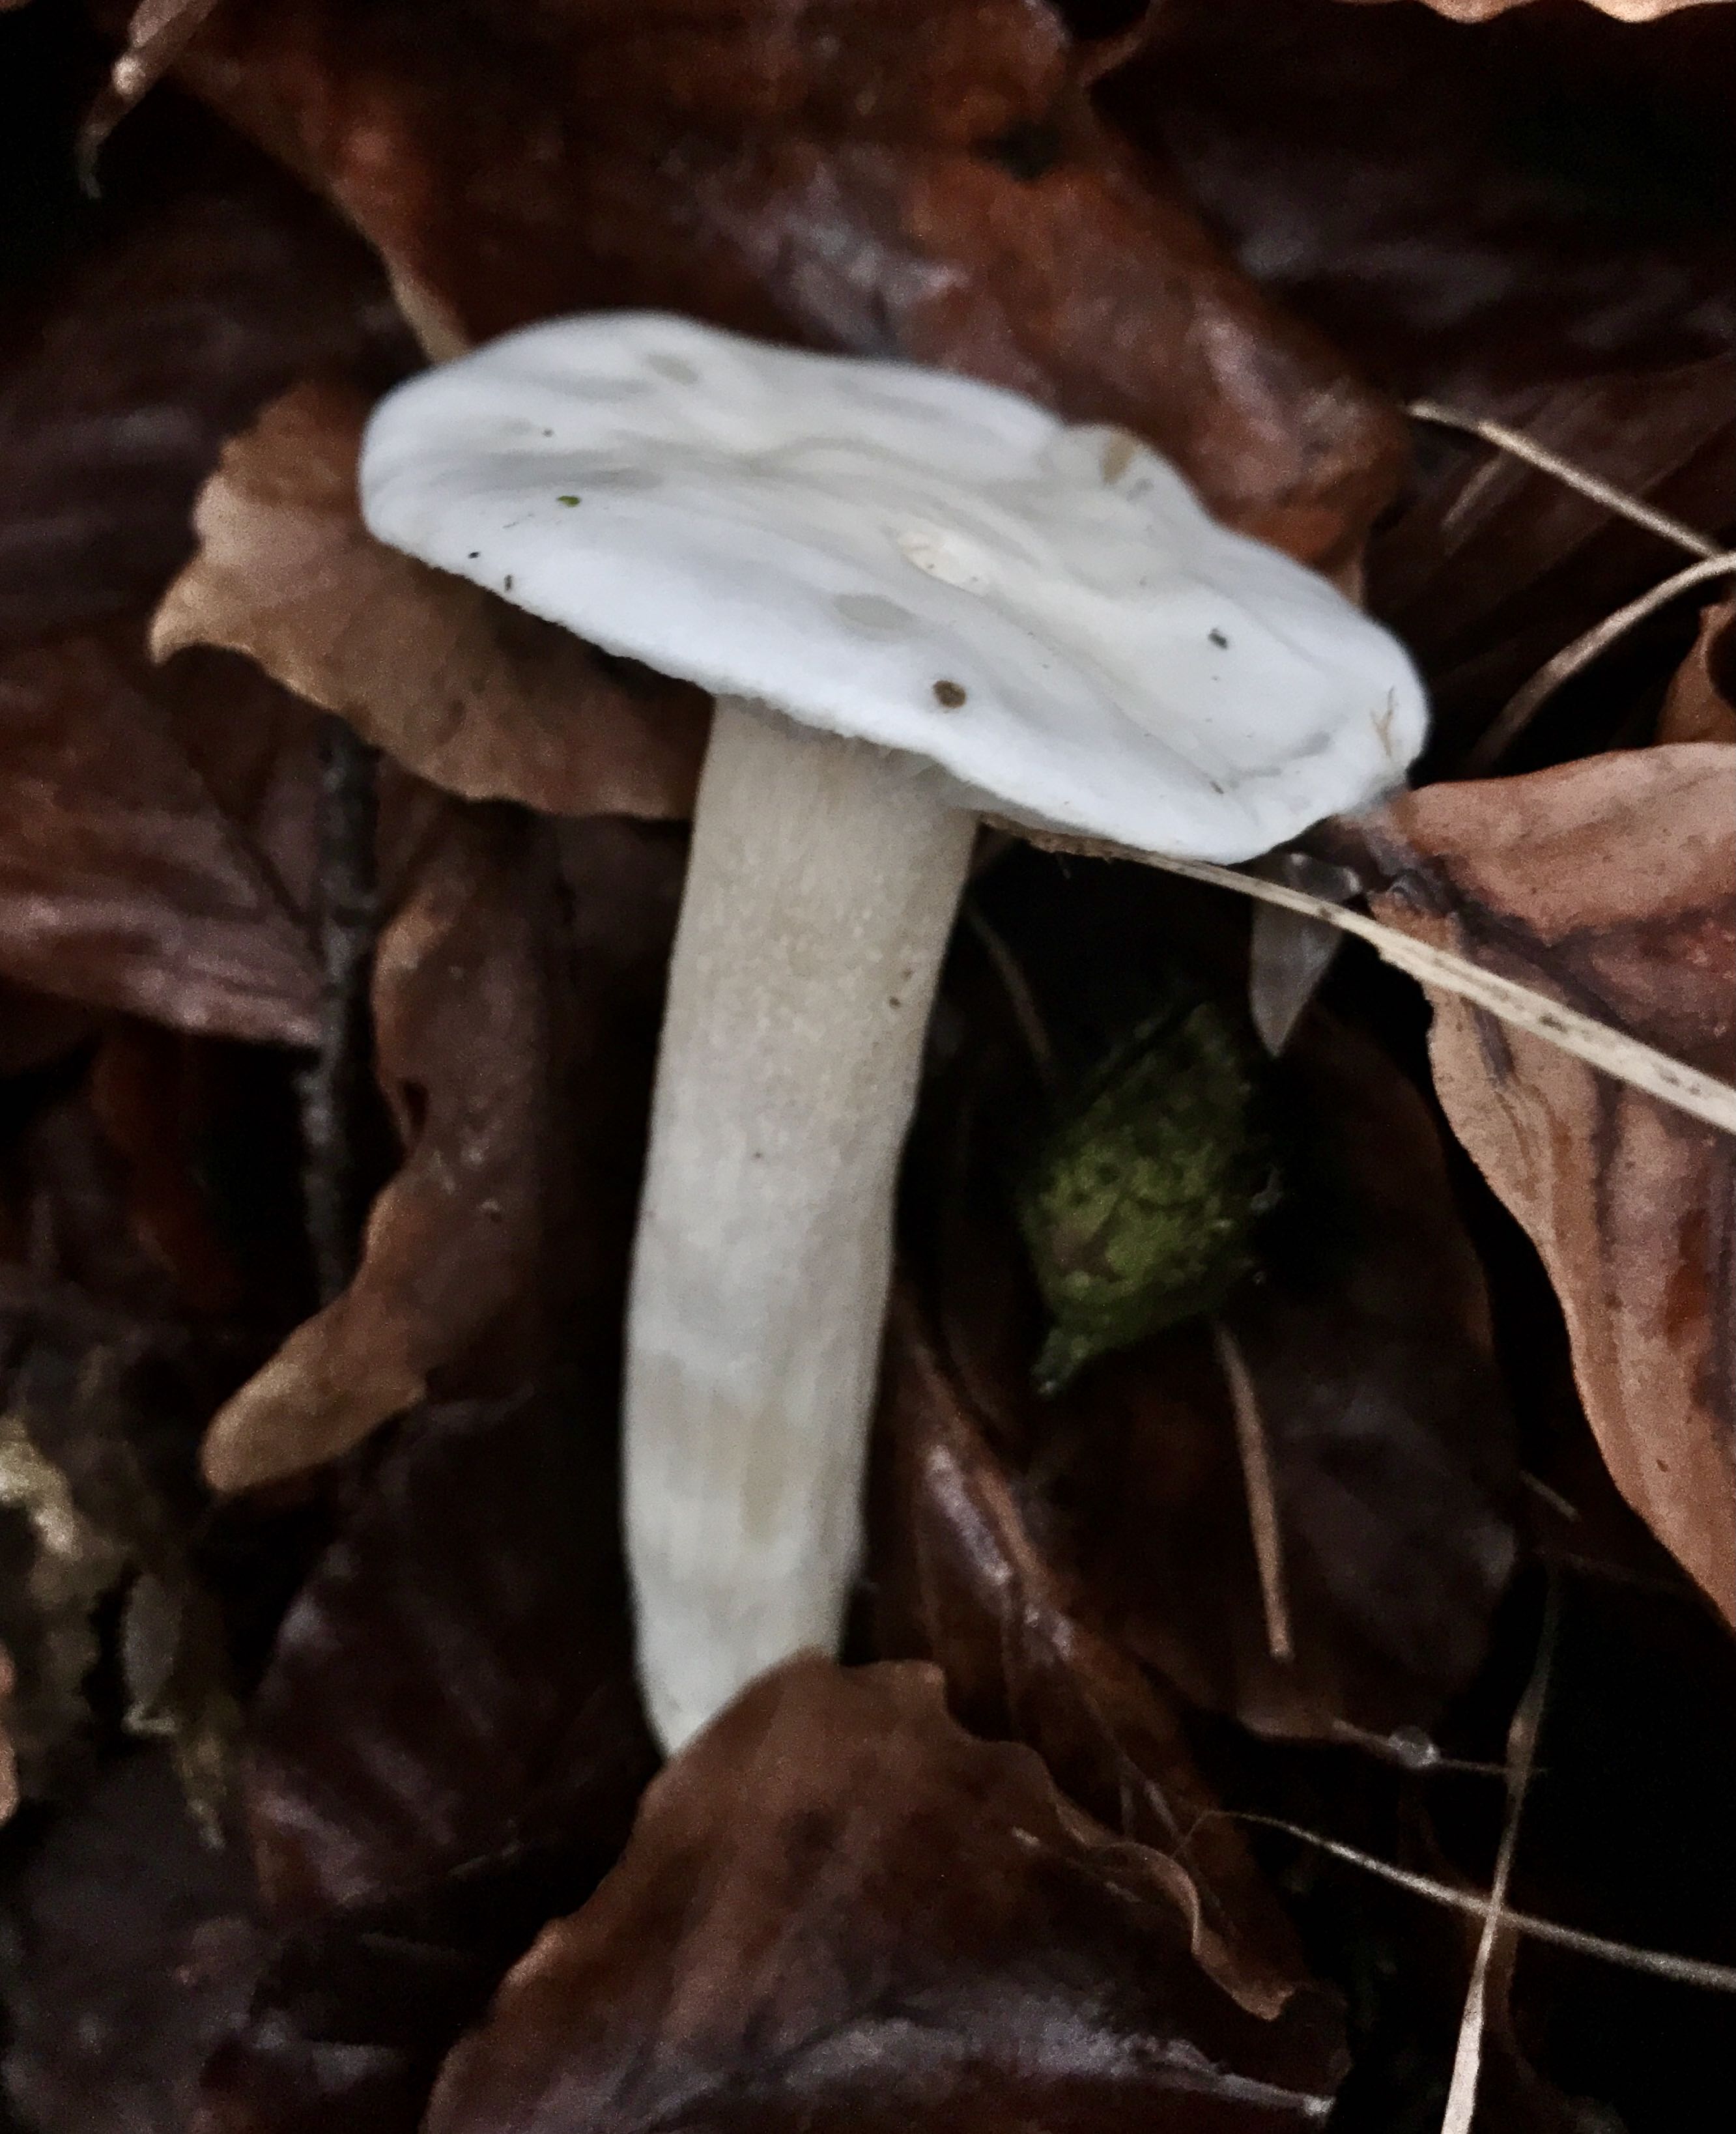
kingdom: Fungi
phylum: Basidiomycota
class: Agaricomycetes
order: Agaricales
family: Hygrophoraceae
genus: Hygrophorus
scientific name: Hygrophorus eburneus
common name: elfenbens-sneglehat
